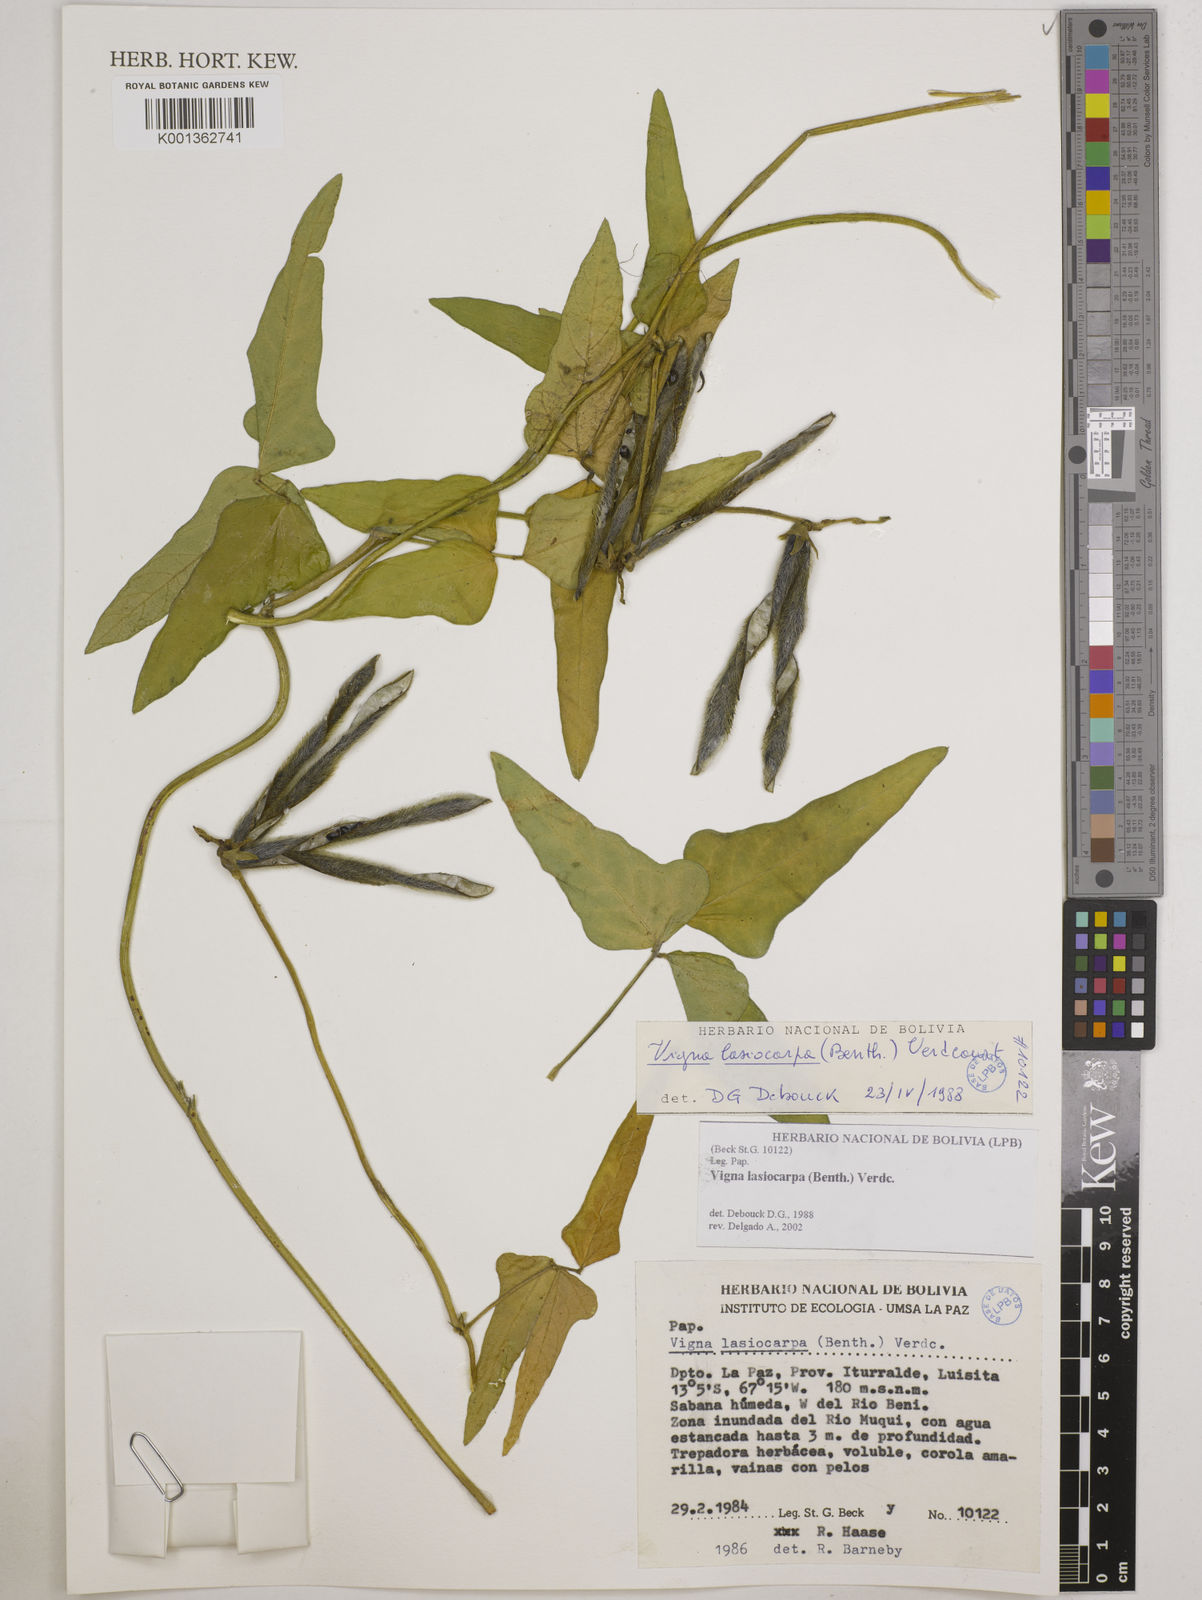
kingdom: Plantae
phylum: Tracheophyta
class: Magnoliopsida
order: Fabales
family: Fabaceae
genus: Vigna
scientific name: Vigna lasiocarpa
